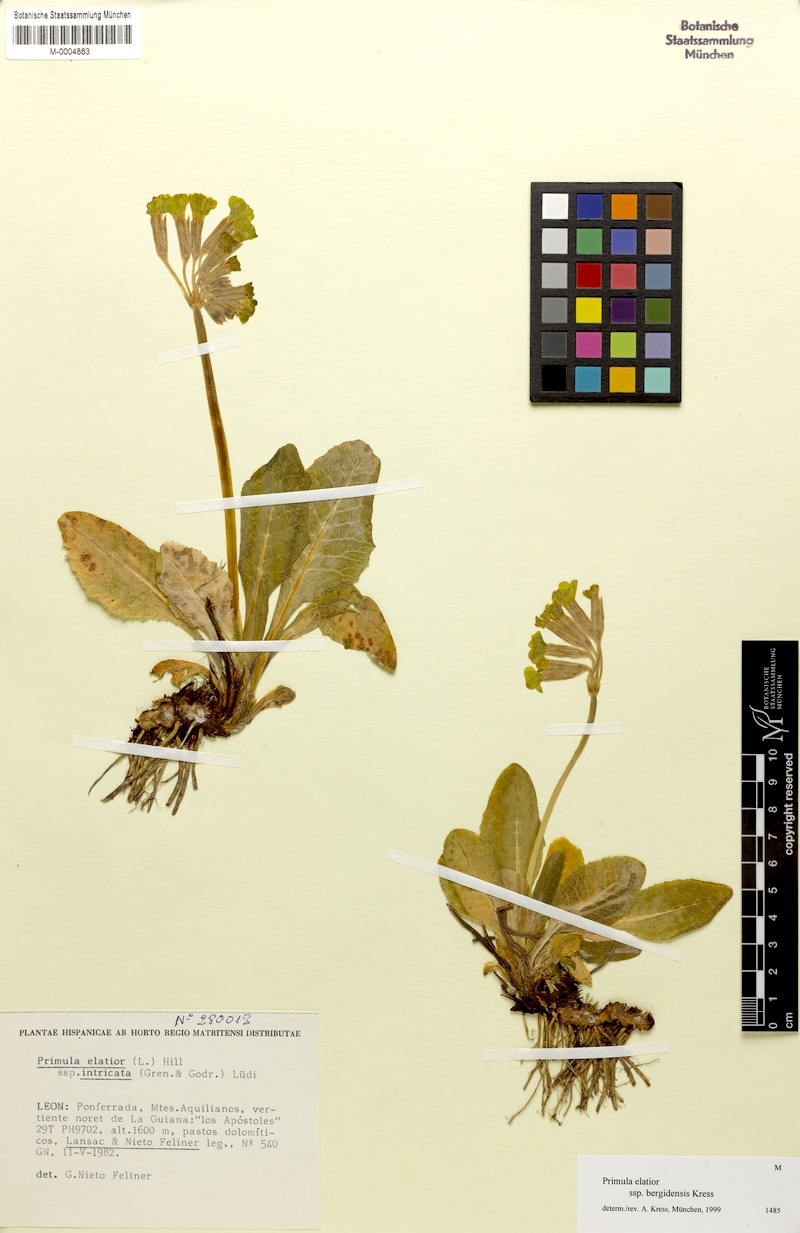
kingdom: Plantae
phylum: Tracheophyta
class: Magnoliopsida
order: Ericales
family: Primulaceae
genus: Primula
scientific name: Primula veris
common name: Cowslip
